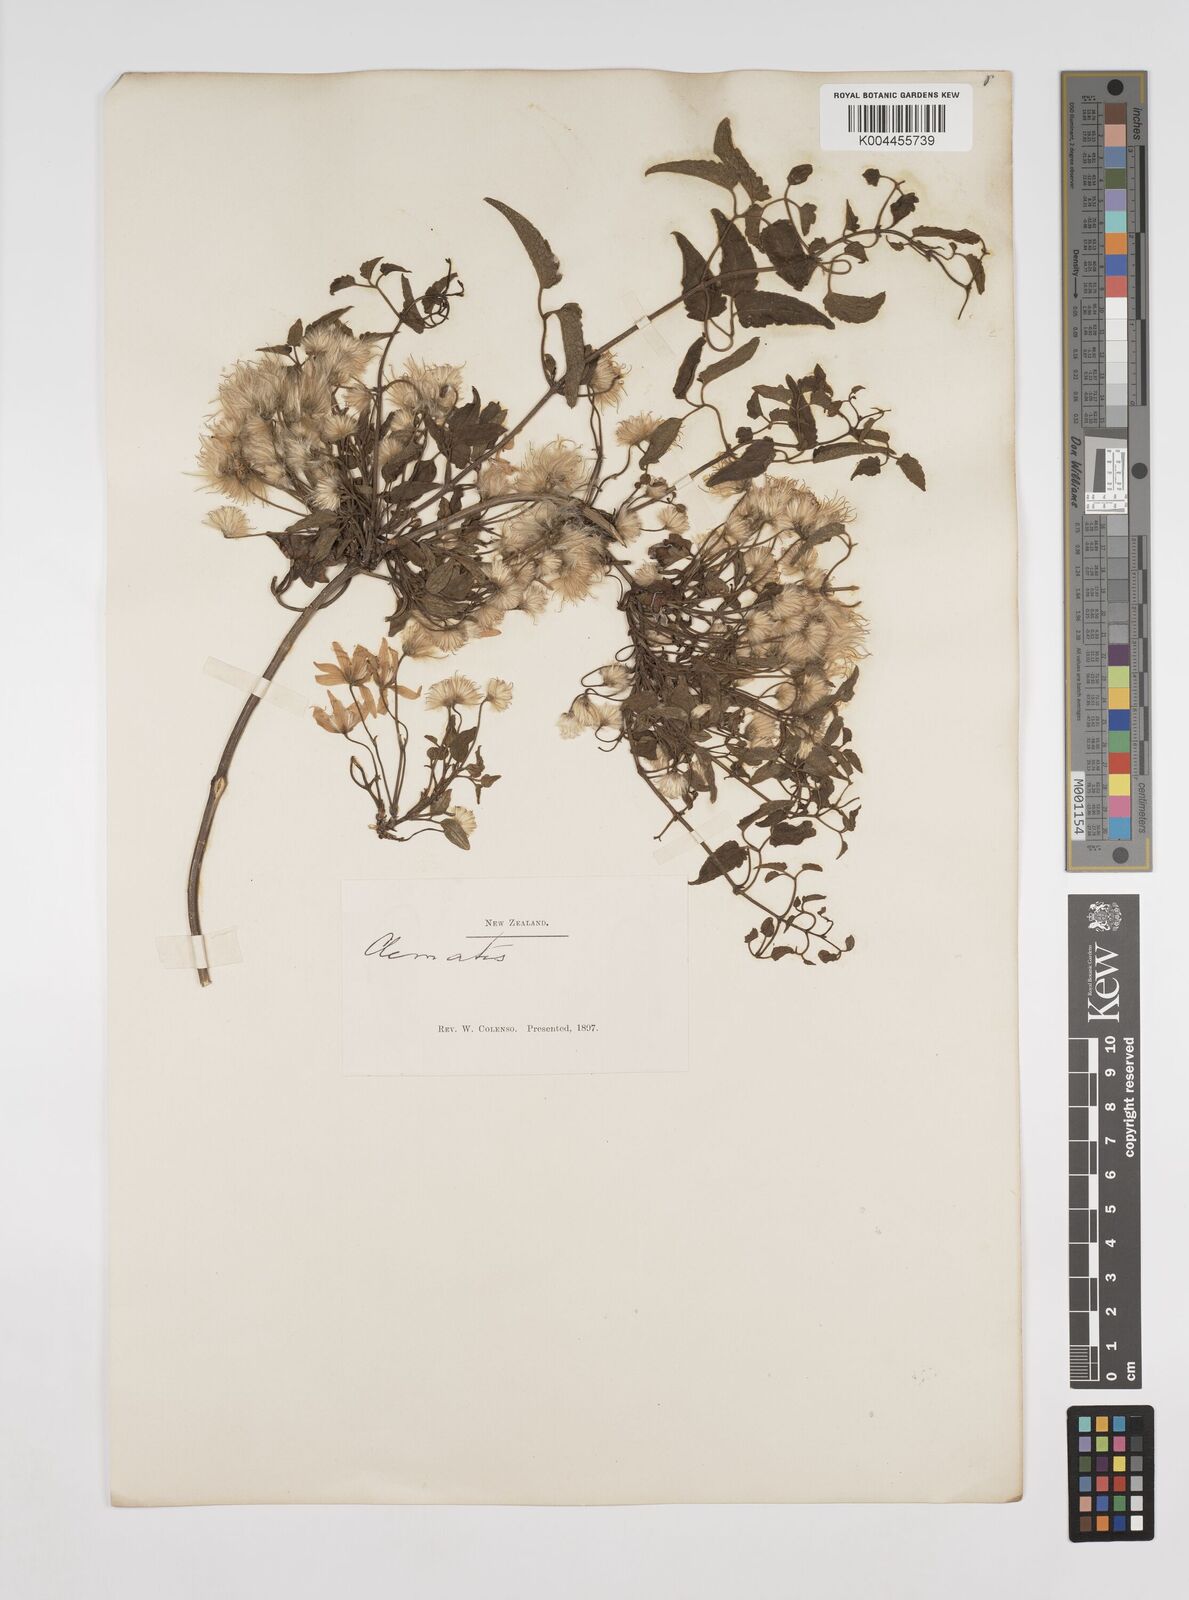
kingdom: Plantae
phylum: Tracheophyta
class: Magnoliopsida
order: Ranunculales
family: Ranunculaceae
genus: Clematis
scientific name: Clematis
